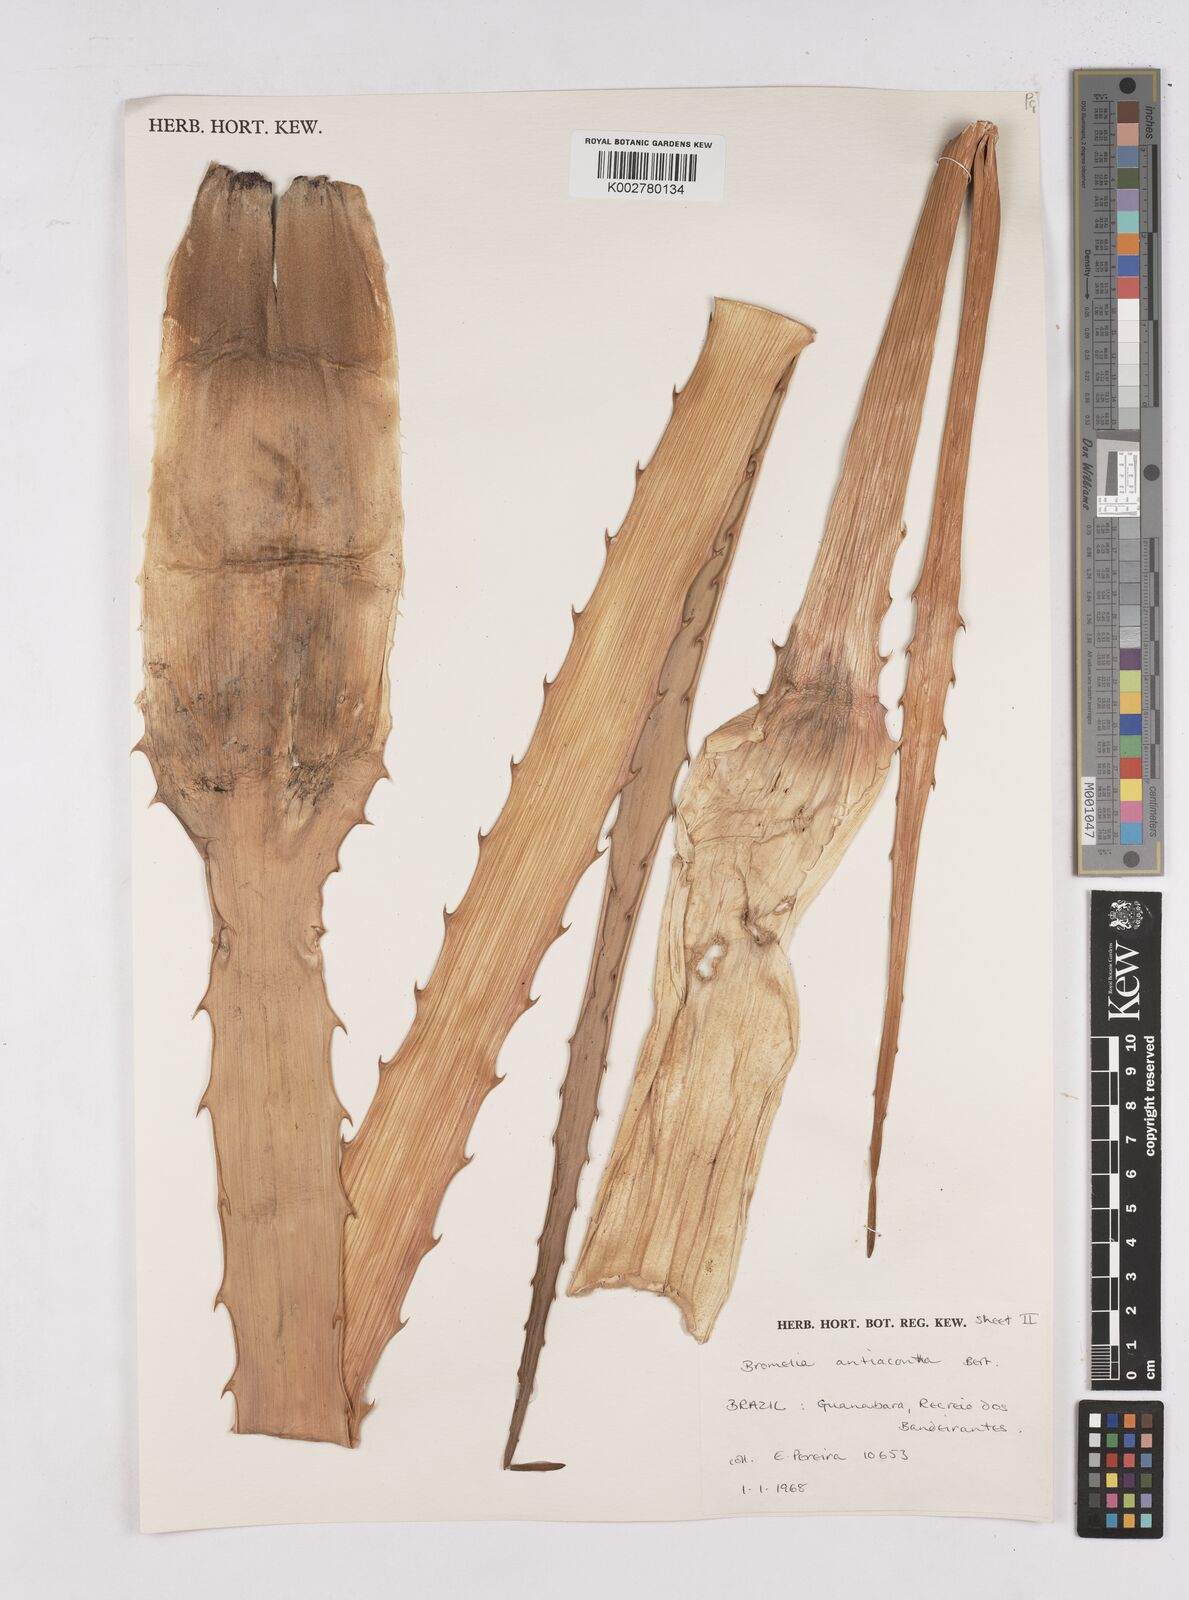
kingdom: Plantae
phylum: Tracheophyta
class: Liliopsida
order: Poales
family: Bromeliaceae
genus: Bromelia
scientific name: Bromelia antiacantha
